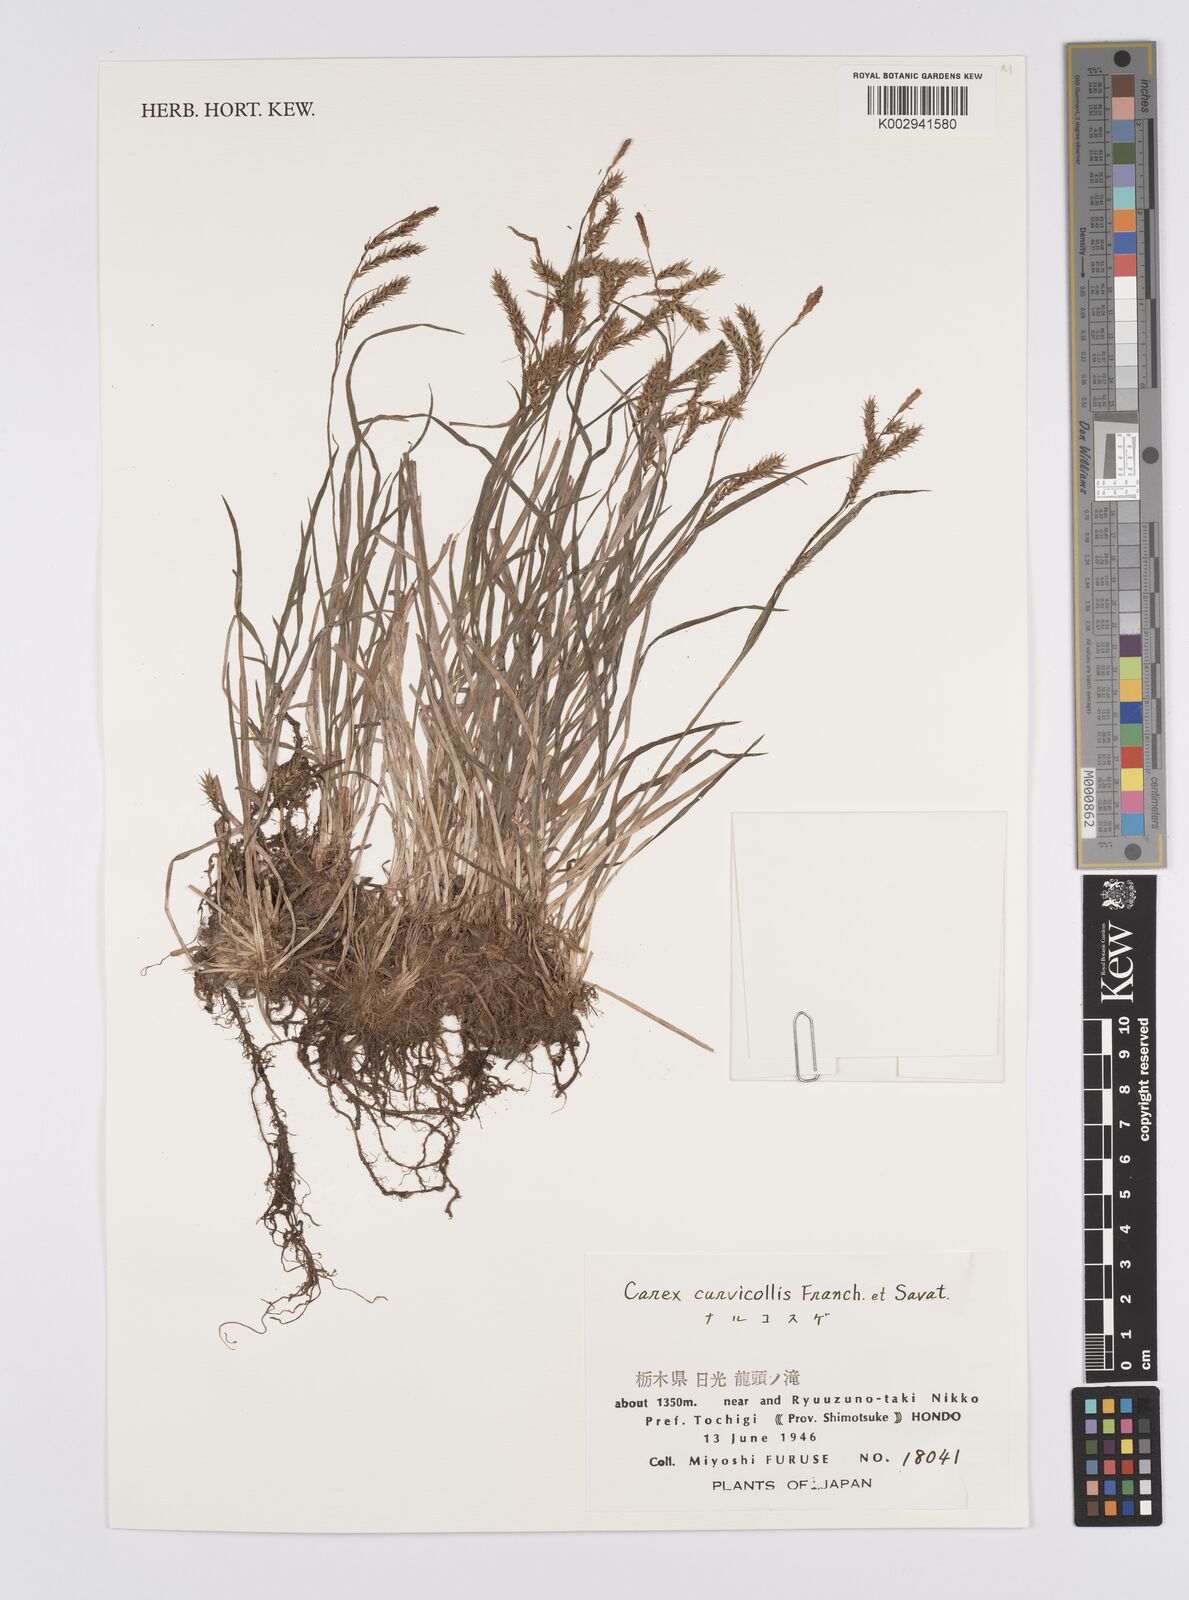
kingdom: Plantae
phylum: Tracheophyta
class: Liliopsida
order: Poales
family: Cyperaceae
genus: Carex
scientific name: Carex curvicollis
